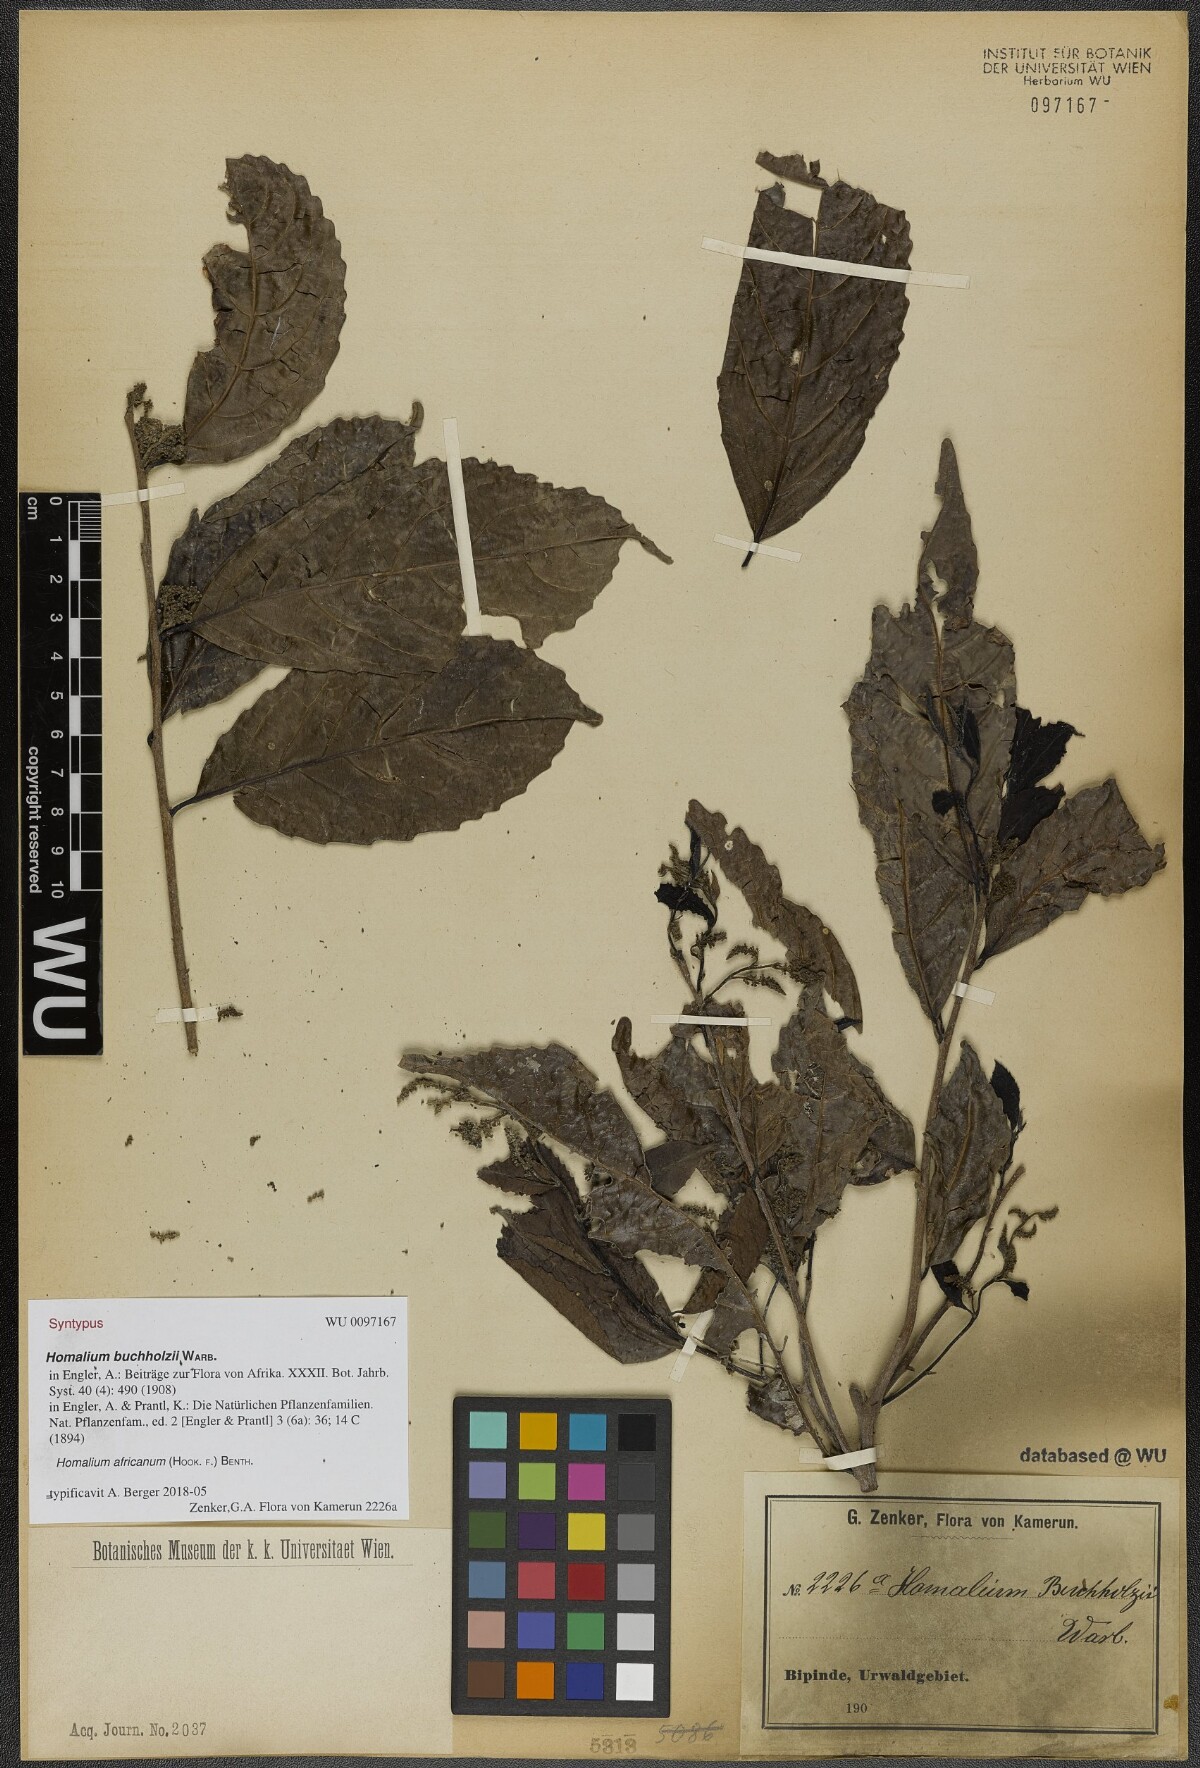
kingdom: Plantae
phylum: Tracheophyta
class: Magnoliopsida
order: Malpighiales
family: Salicaceae
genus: Homalium
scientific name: Homalium africanum
